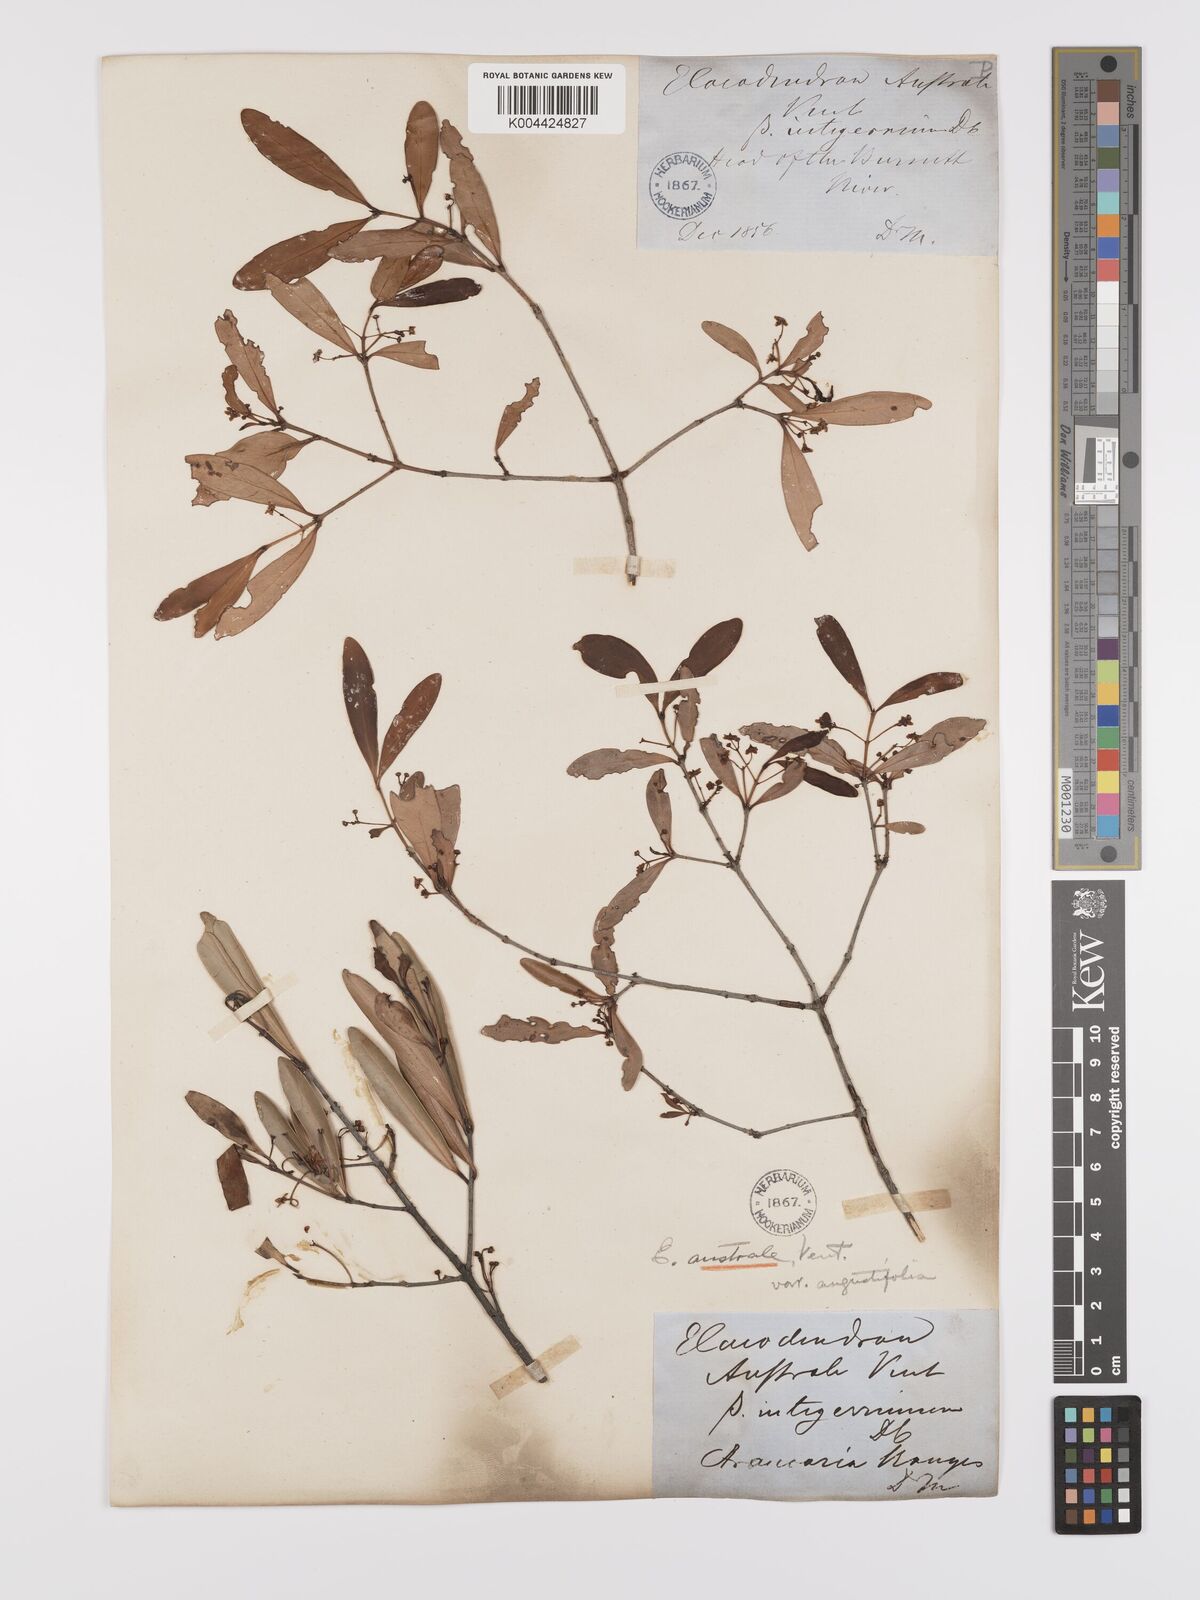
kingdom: Plantae
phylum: Tracheophyta
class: Magnoliopsida
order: Celastrales
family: Celastraceae
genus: Elaeodendron
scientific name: Elaeodendron australe
